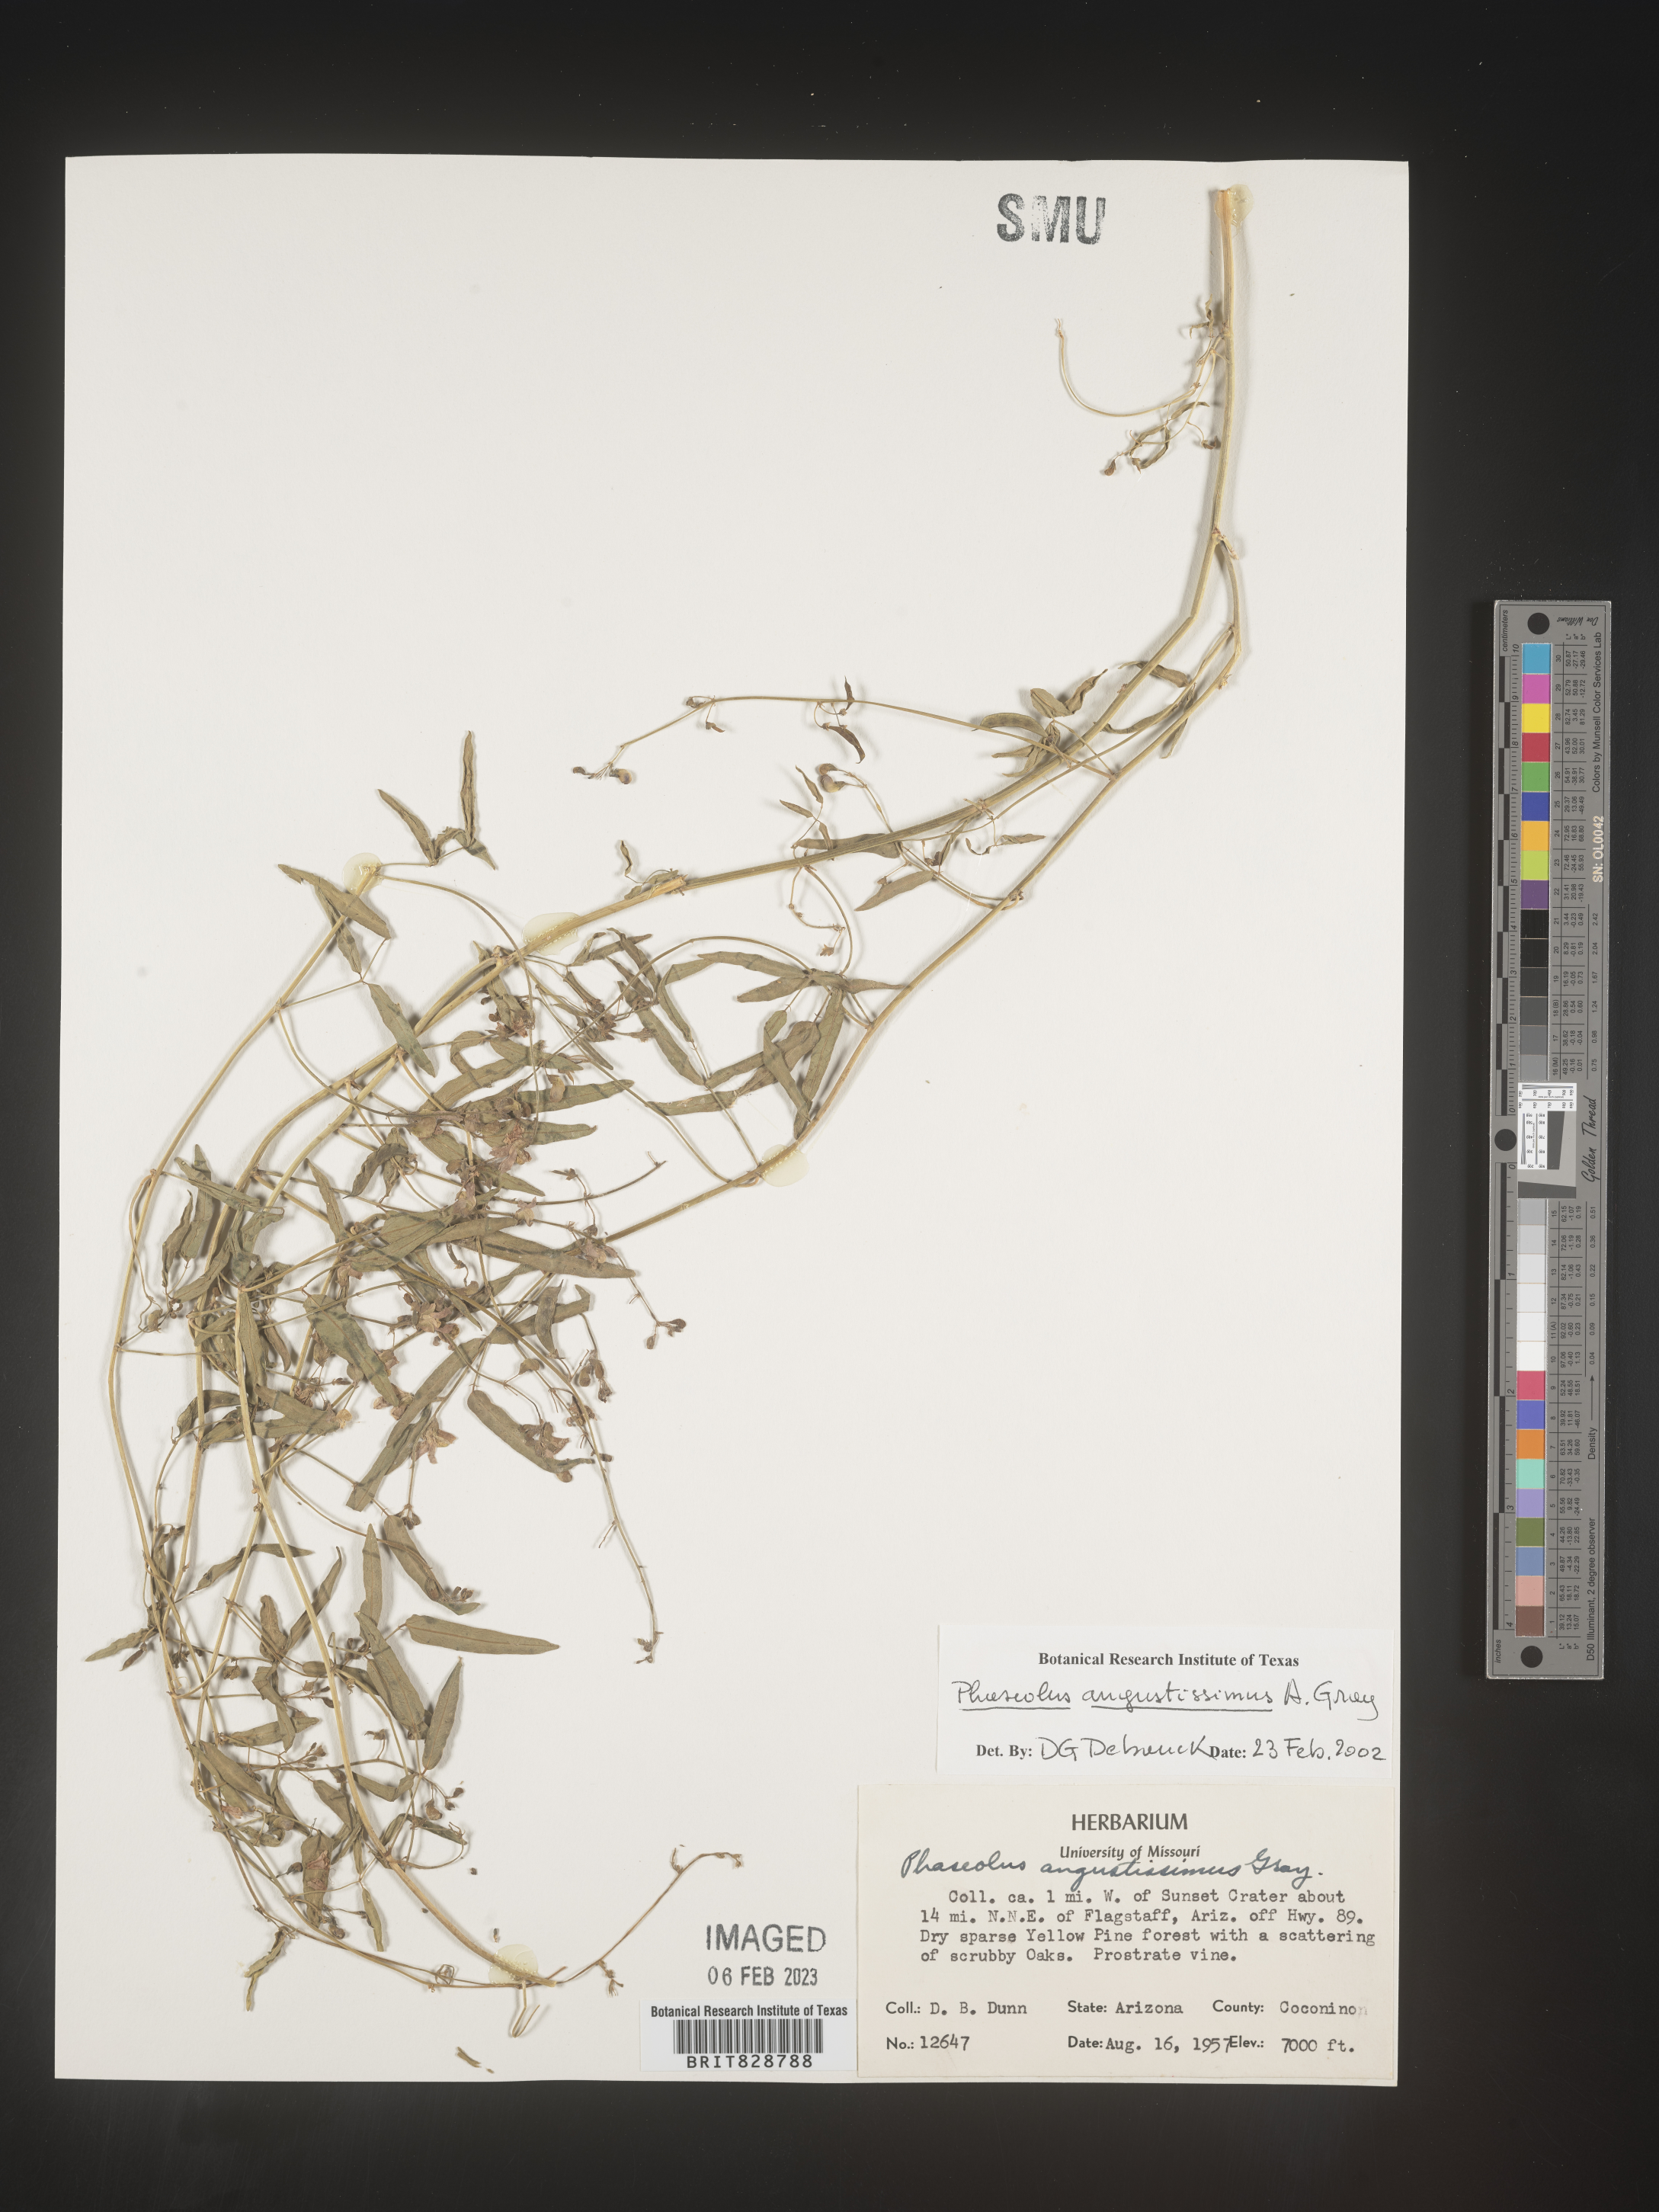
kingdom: Plantae
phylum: Tracheophyta
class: Magnoliopsida
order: Fabales
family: Fabaceae
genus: Phaseolus
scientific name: Phaseolus
